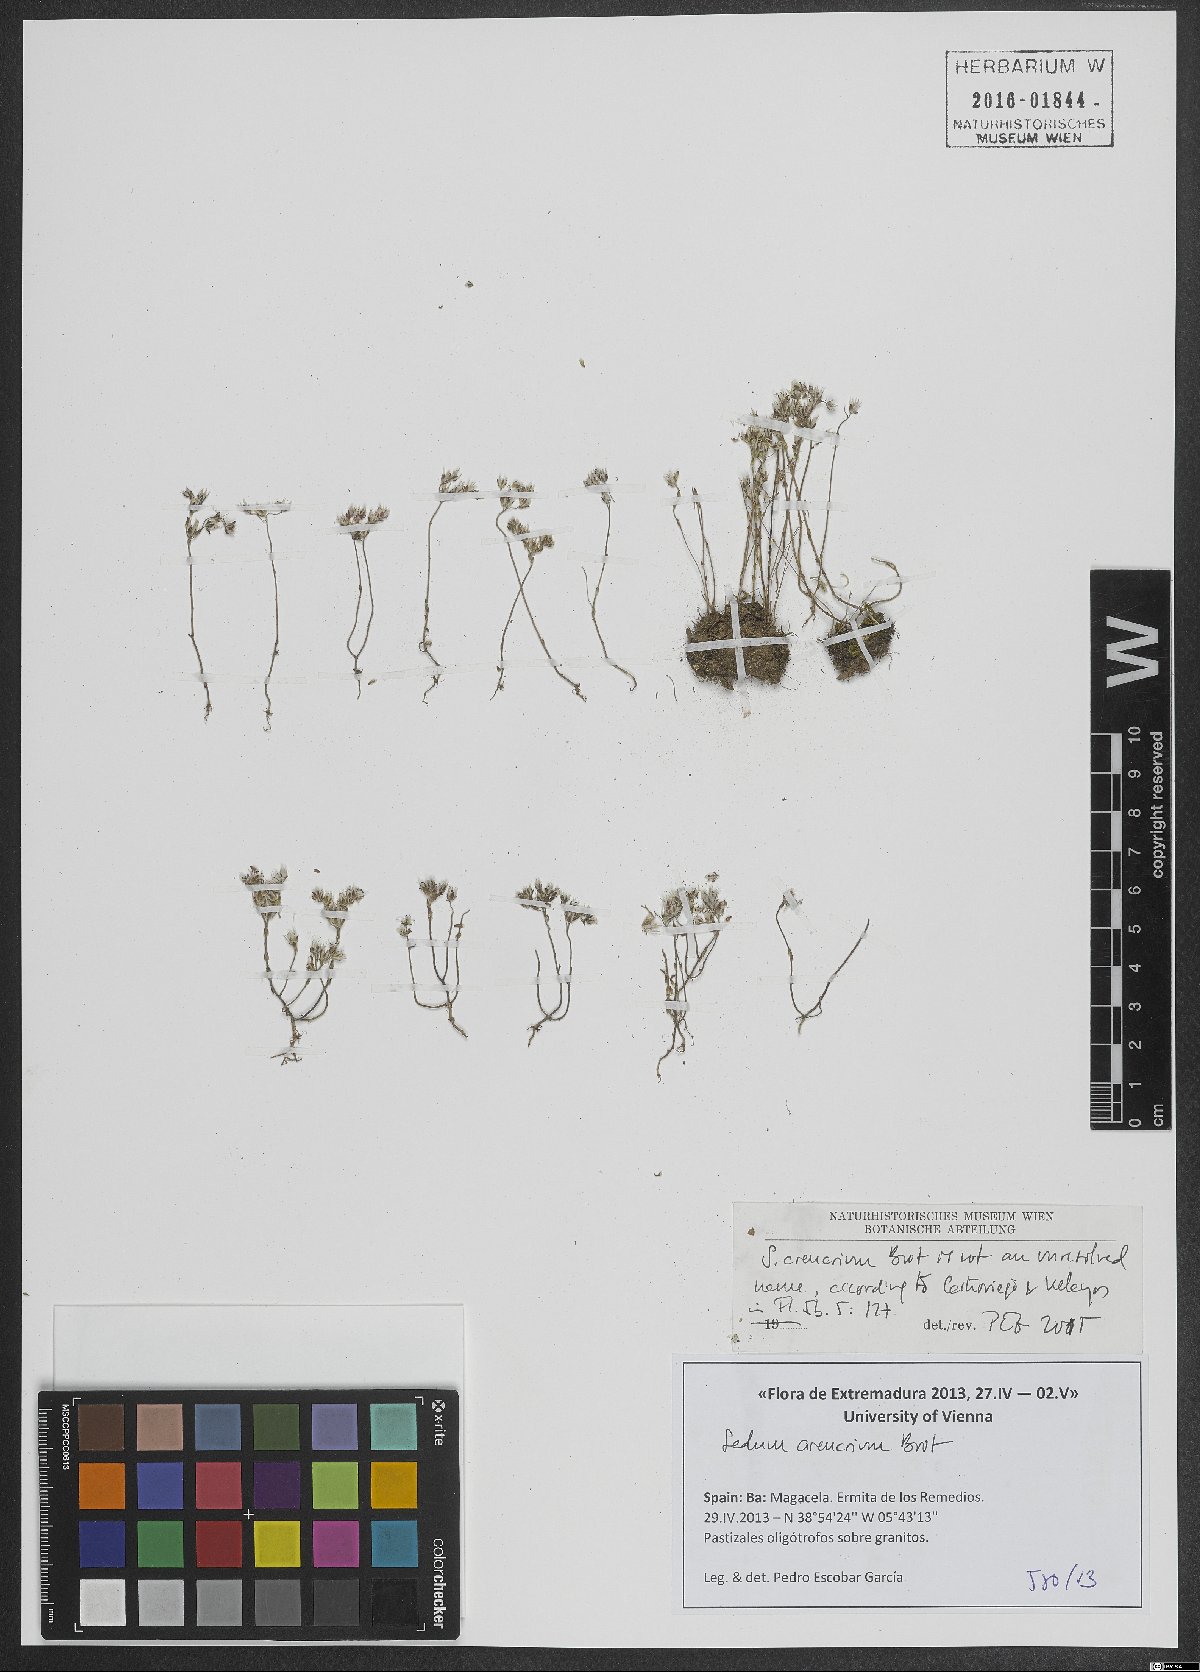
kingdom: Plantae
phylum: Tracheophyta
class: Magnoliopsida
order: Saxifragales
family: Crassulaceae
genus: Sedum
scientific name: Sedum arenarium
